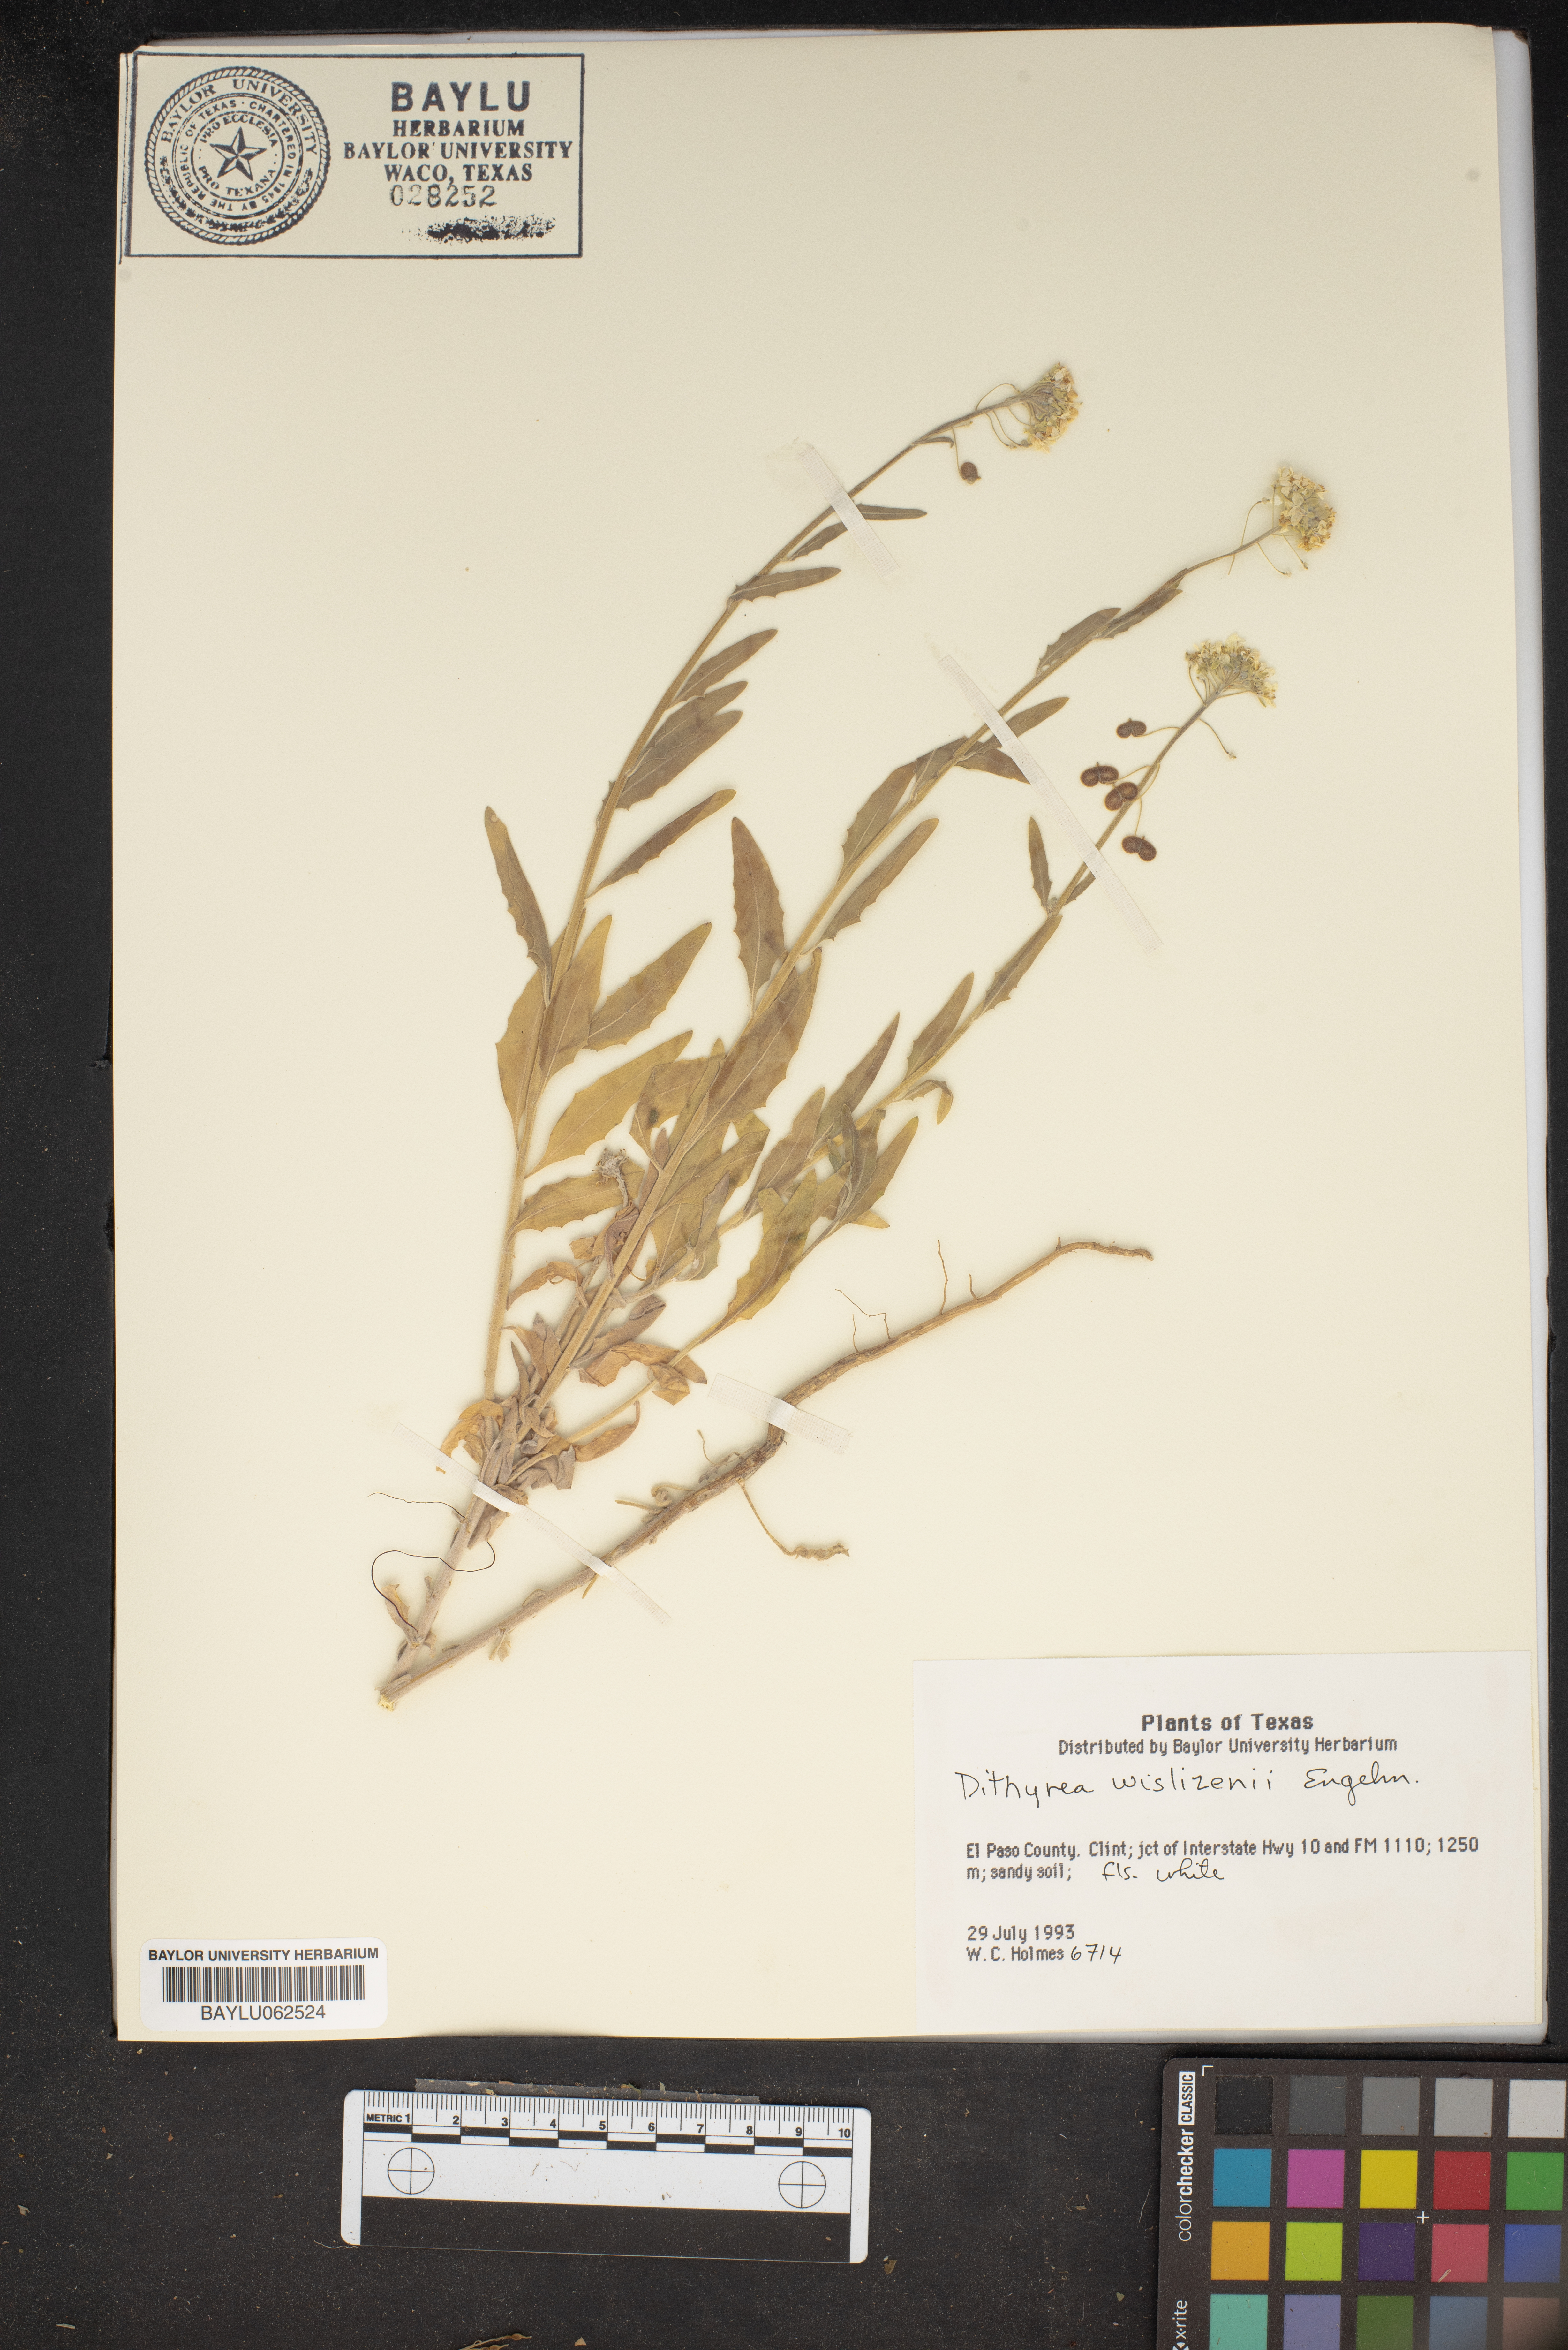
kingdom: Plantae
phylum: Tracheophyta
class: Magnoliopsida
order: Brassicales
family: Brassicaceae
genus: Dimorphocarpa
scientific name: Dimorphocarpa wislizenii
